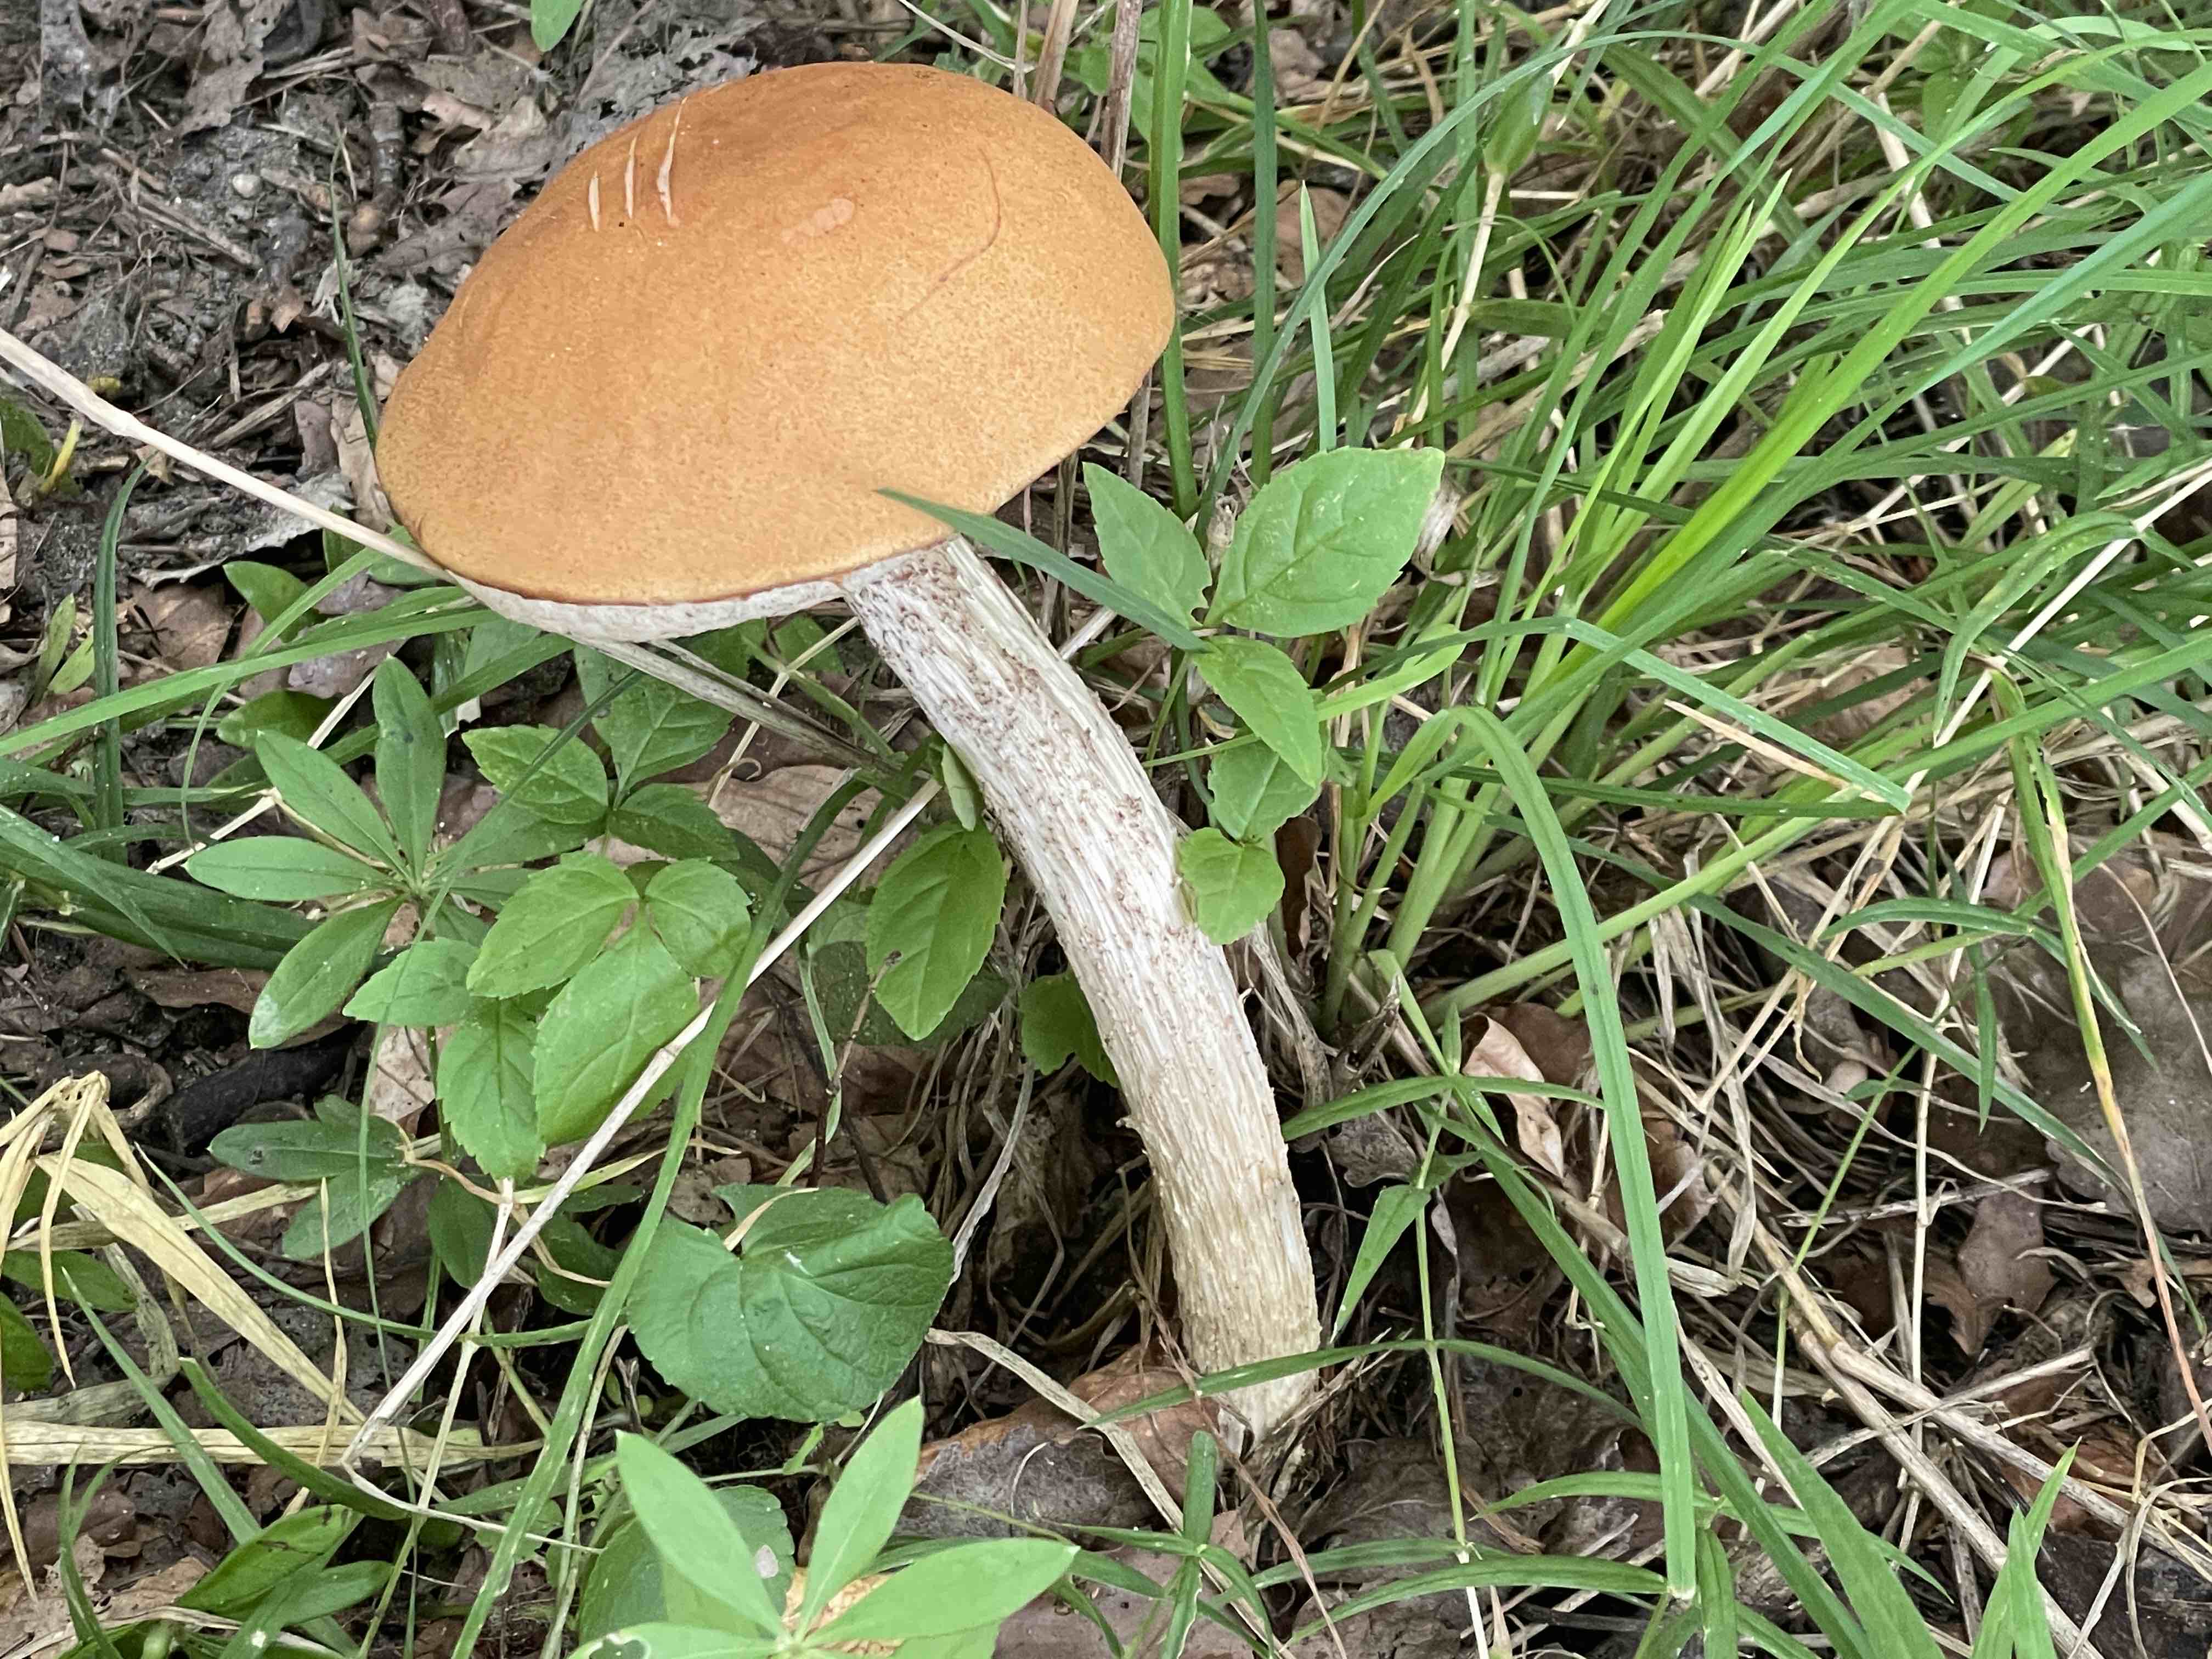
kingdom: Fungi
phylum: Basidiomycota
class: Agaricomycetes
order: Boletales
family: Boletaceae
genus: Leccinum
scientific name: Leccinum albostipitatum
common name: aspe-skælrørhat
